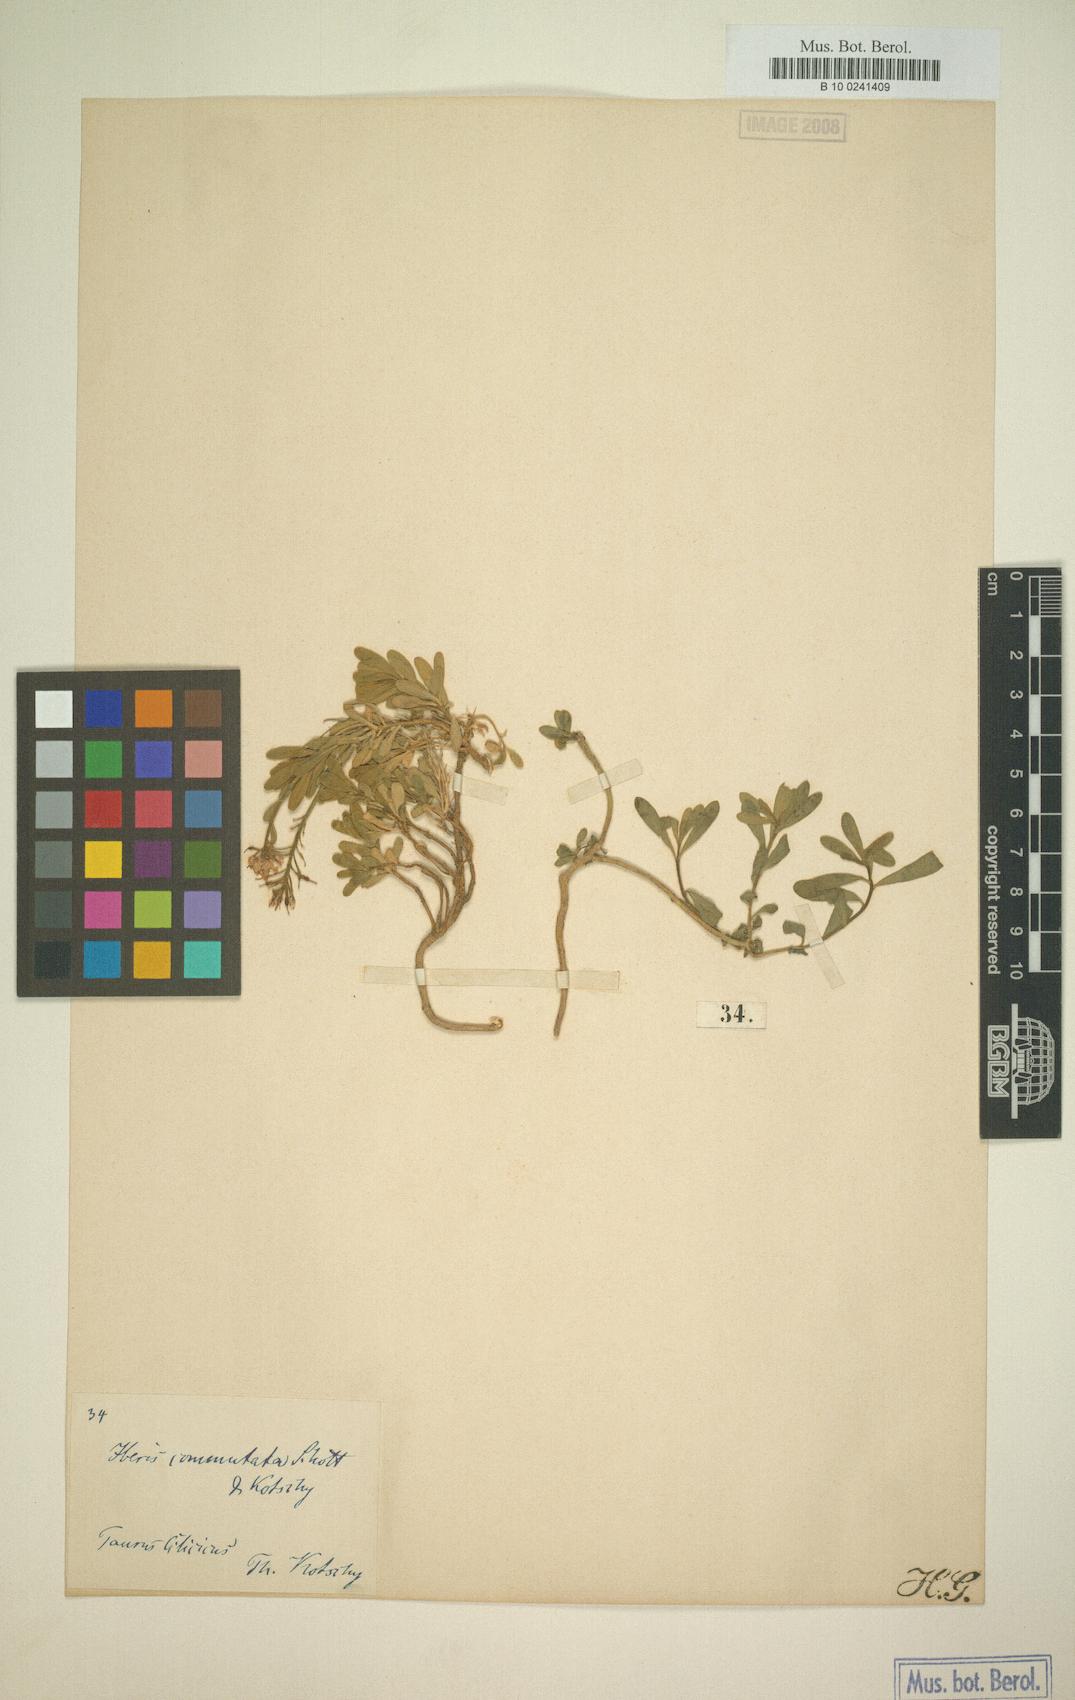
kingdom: Plantae
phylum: Tracheophyta
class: Magnoliopsida
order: Brassicales
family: Brassicaceae
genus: Iberis
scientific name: Iberis sempervirens
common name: Evergreen candytuft
